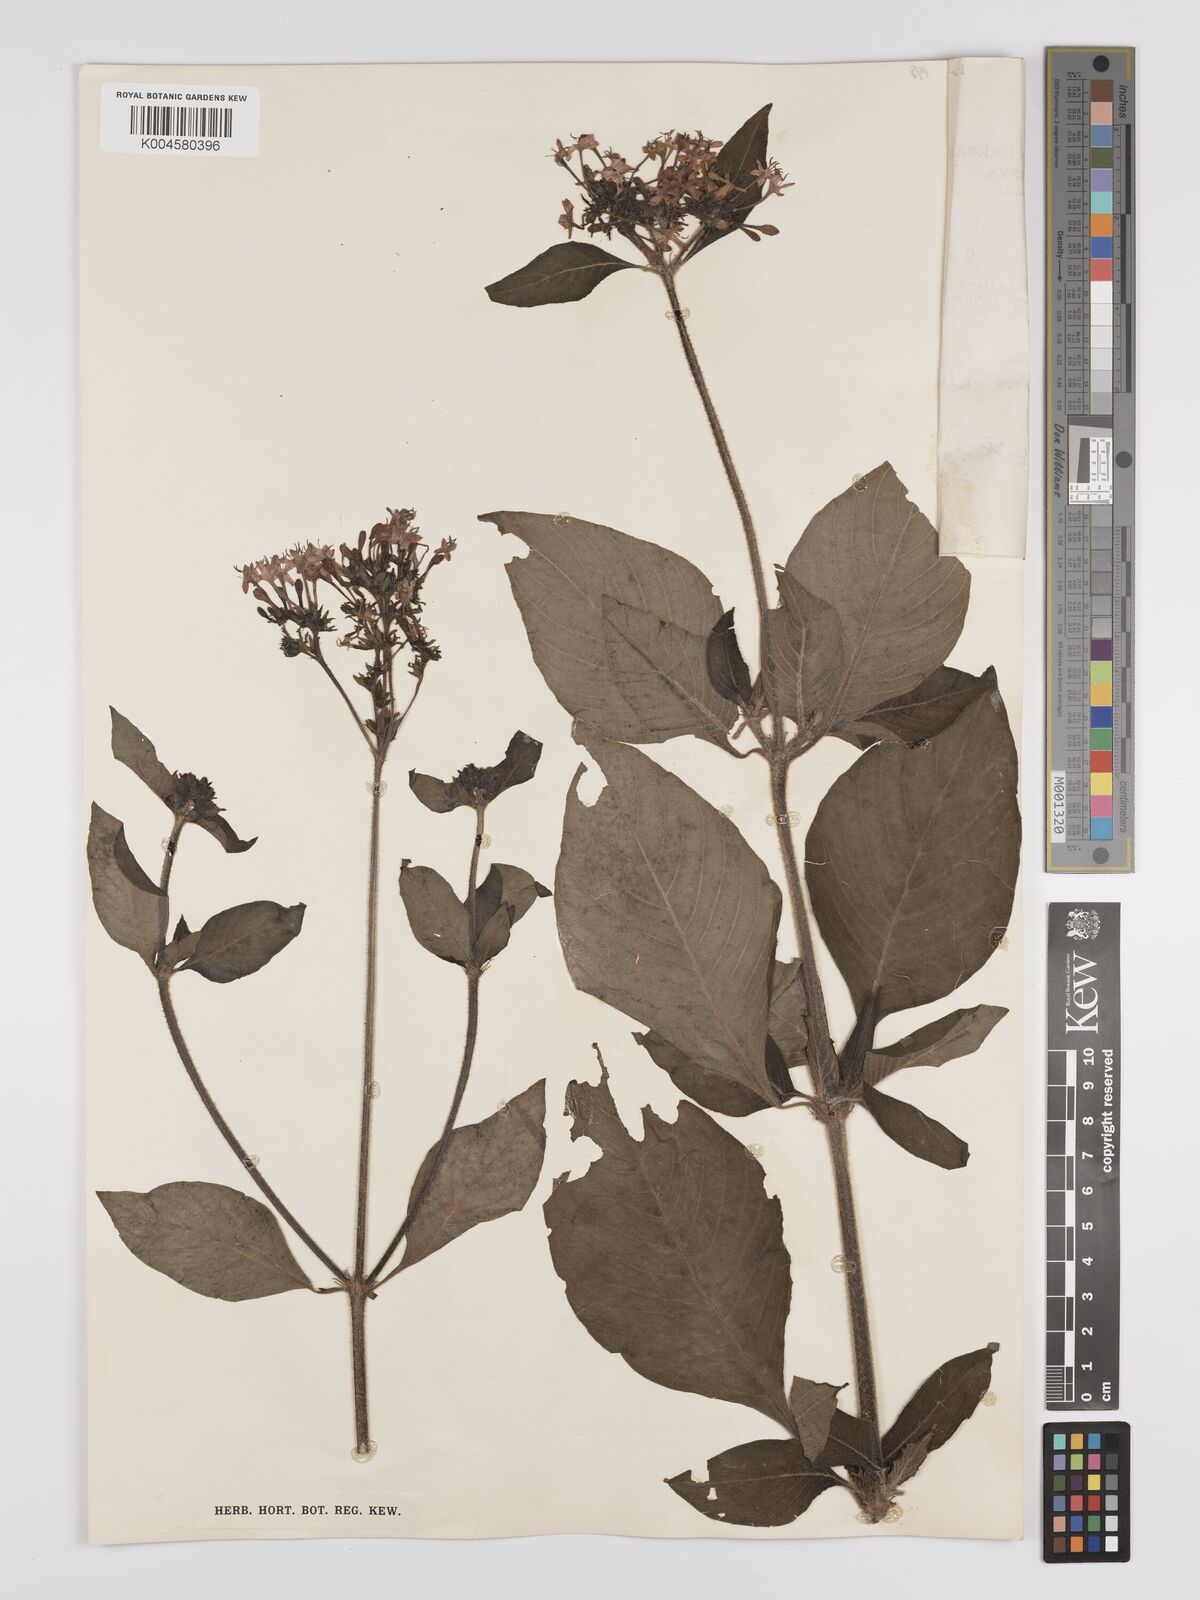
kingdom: Plantae
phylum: Tracheophyta
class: Magnoliopsida
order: Gentianales
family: Rubiaceae
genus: Pentas
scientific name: Pentas
